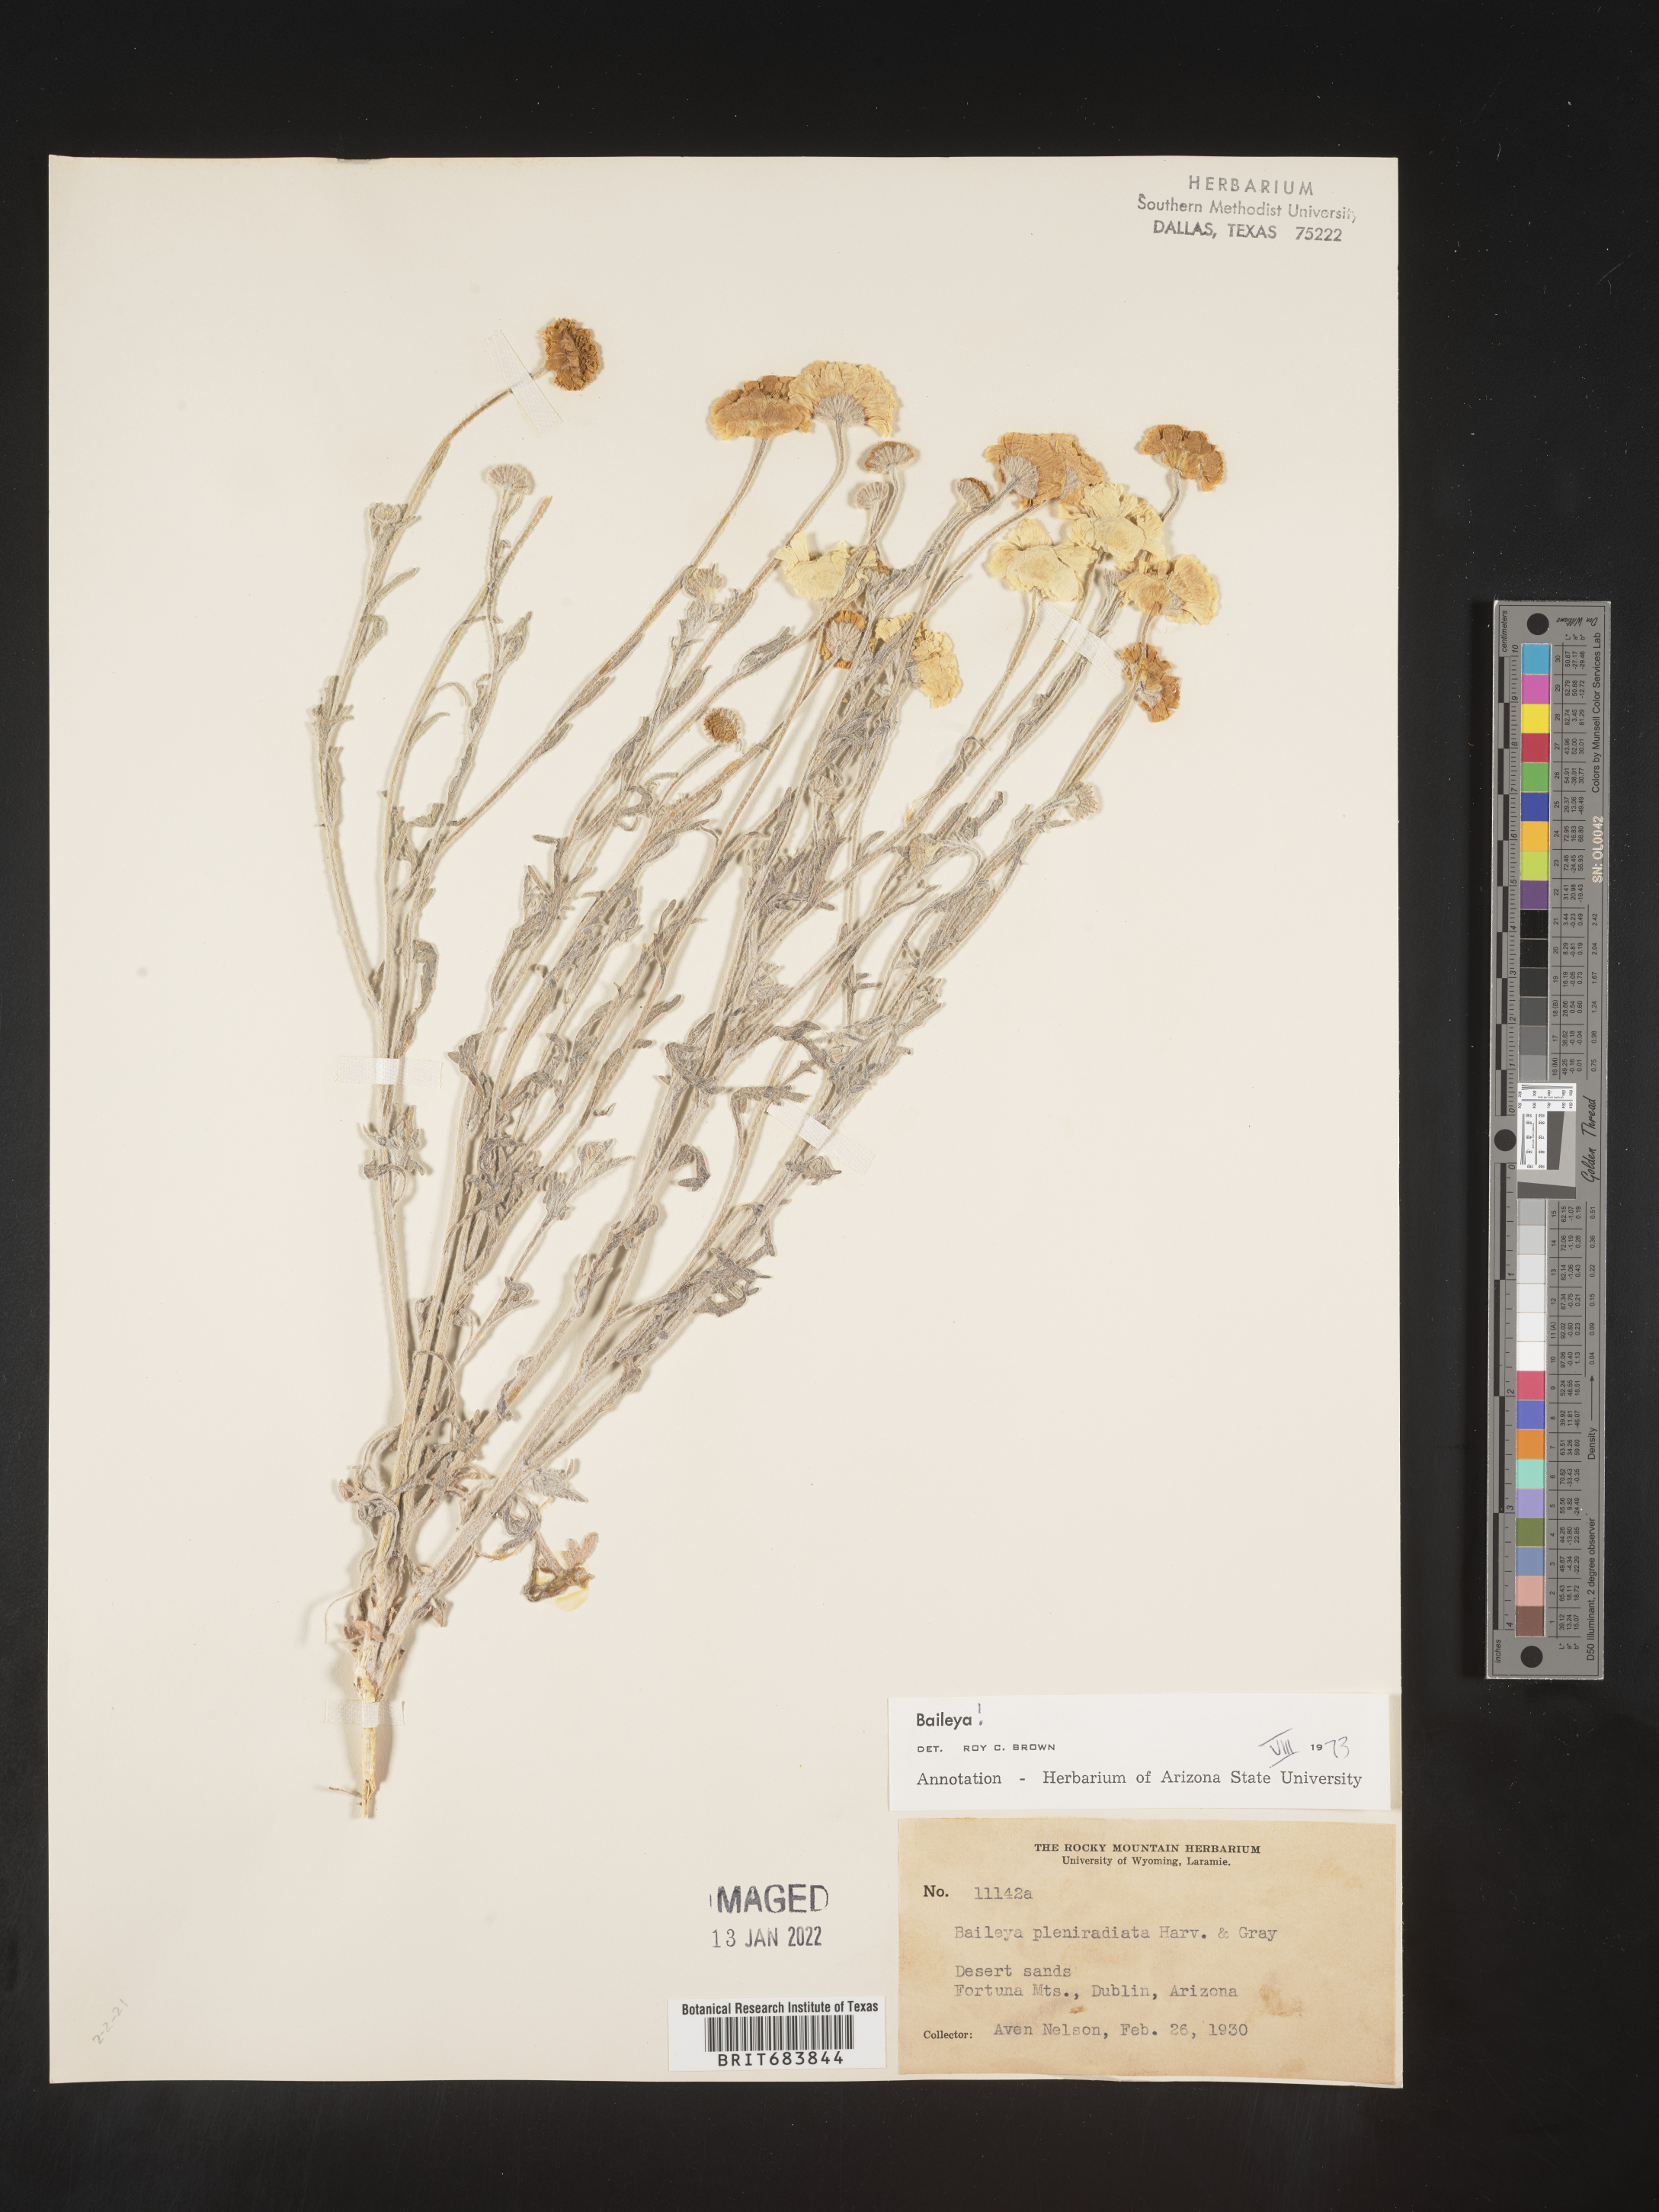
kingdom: Plantae
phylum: Tracheophyta
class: Magnoliopsida
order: Asterales
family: Asteraceae
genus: Baileya
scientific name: Baileya pleniradiata
